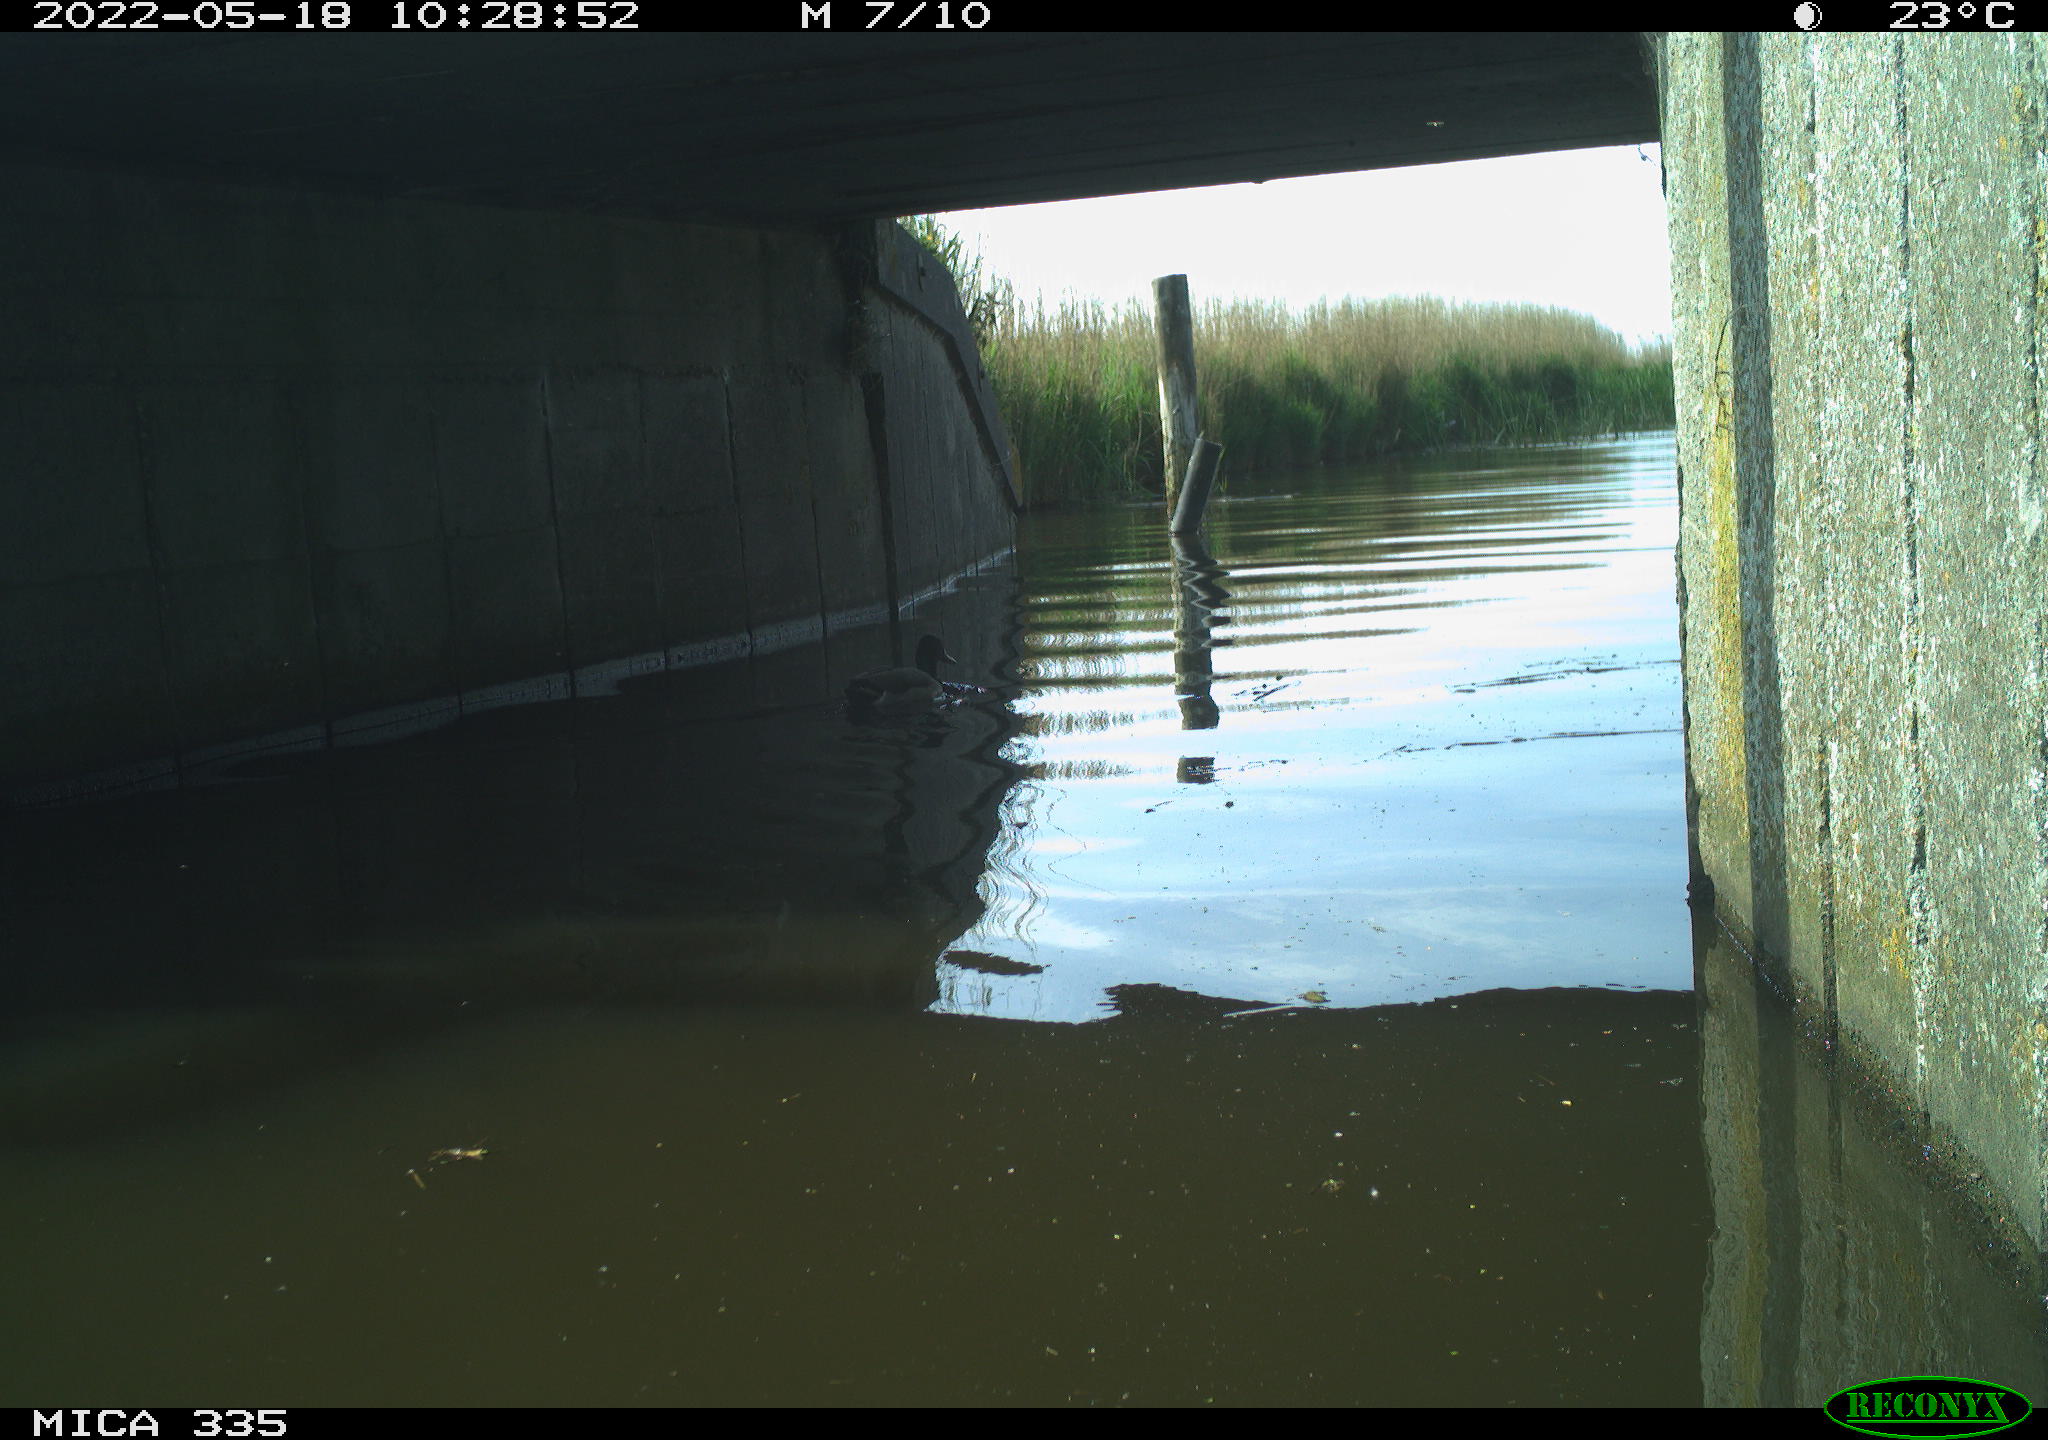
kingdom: Animalia
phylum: Chordata
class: Aves
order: Anseriformes
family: Anatidae
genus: Anas
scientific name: Anas platyrhynchos
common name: Mallard
